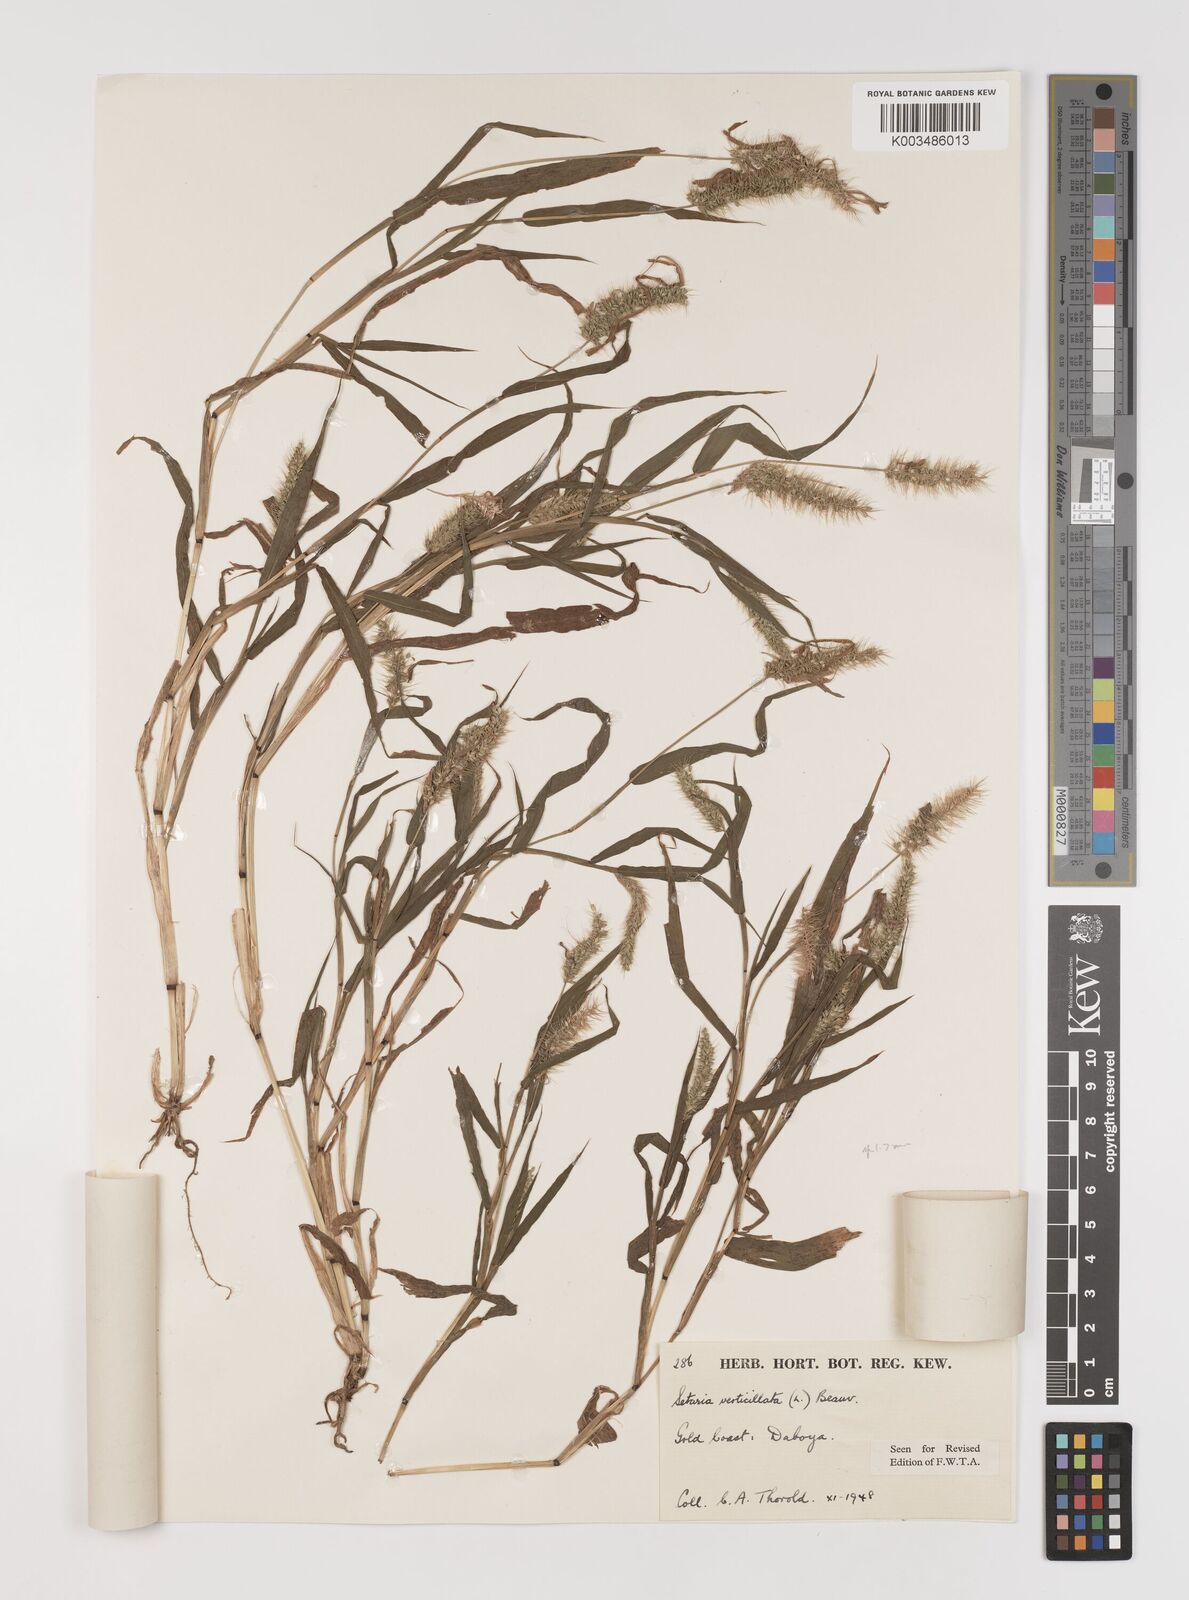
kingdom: Plantae
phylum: Tracheophyta
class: Liliopsida
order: Poales
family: Poaceae
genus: Setaria
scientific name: Setaria verticillata
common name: Hooked bristlegrass
